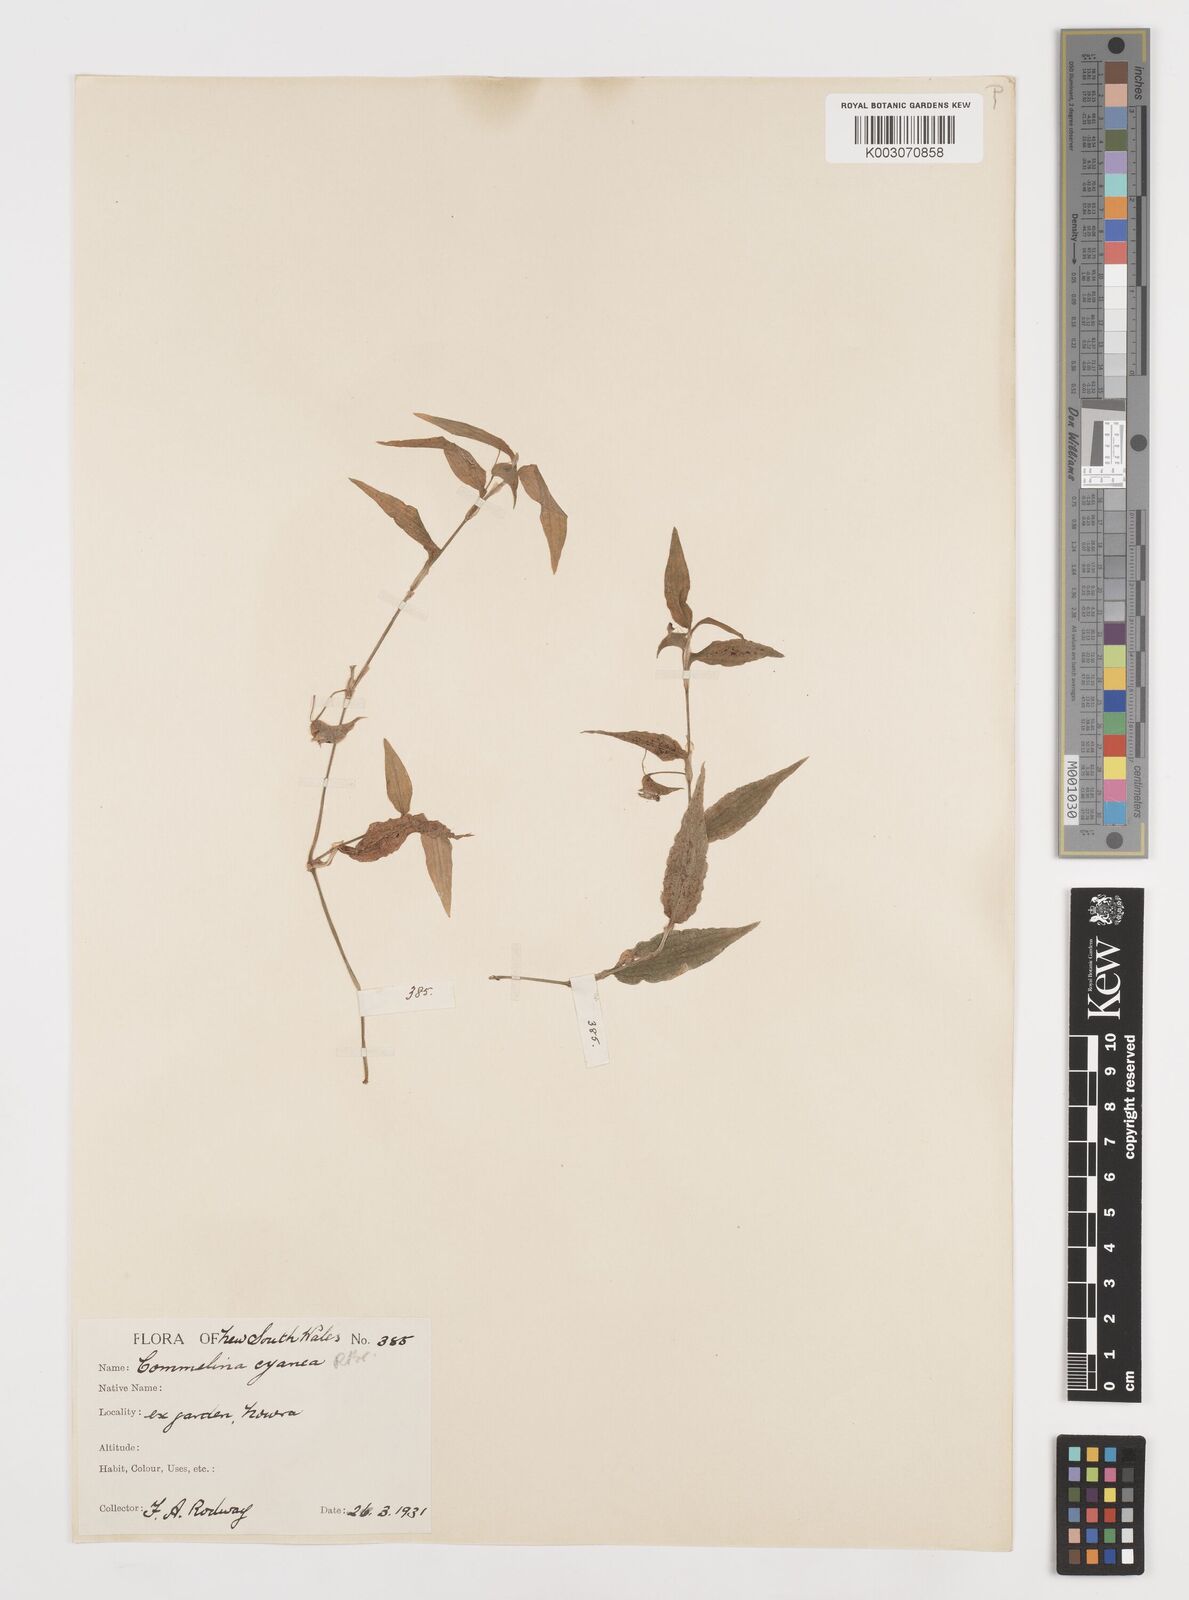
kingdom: Plantae
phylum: Tracheophyta
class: Liliopsida
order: Commelinales
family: Commelinaceae
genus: Commelina
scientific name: Commelina cyanea
